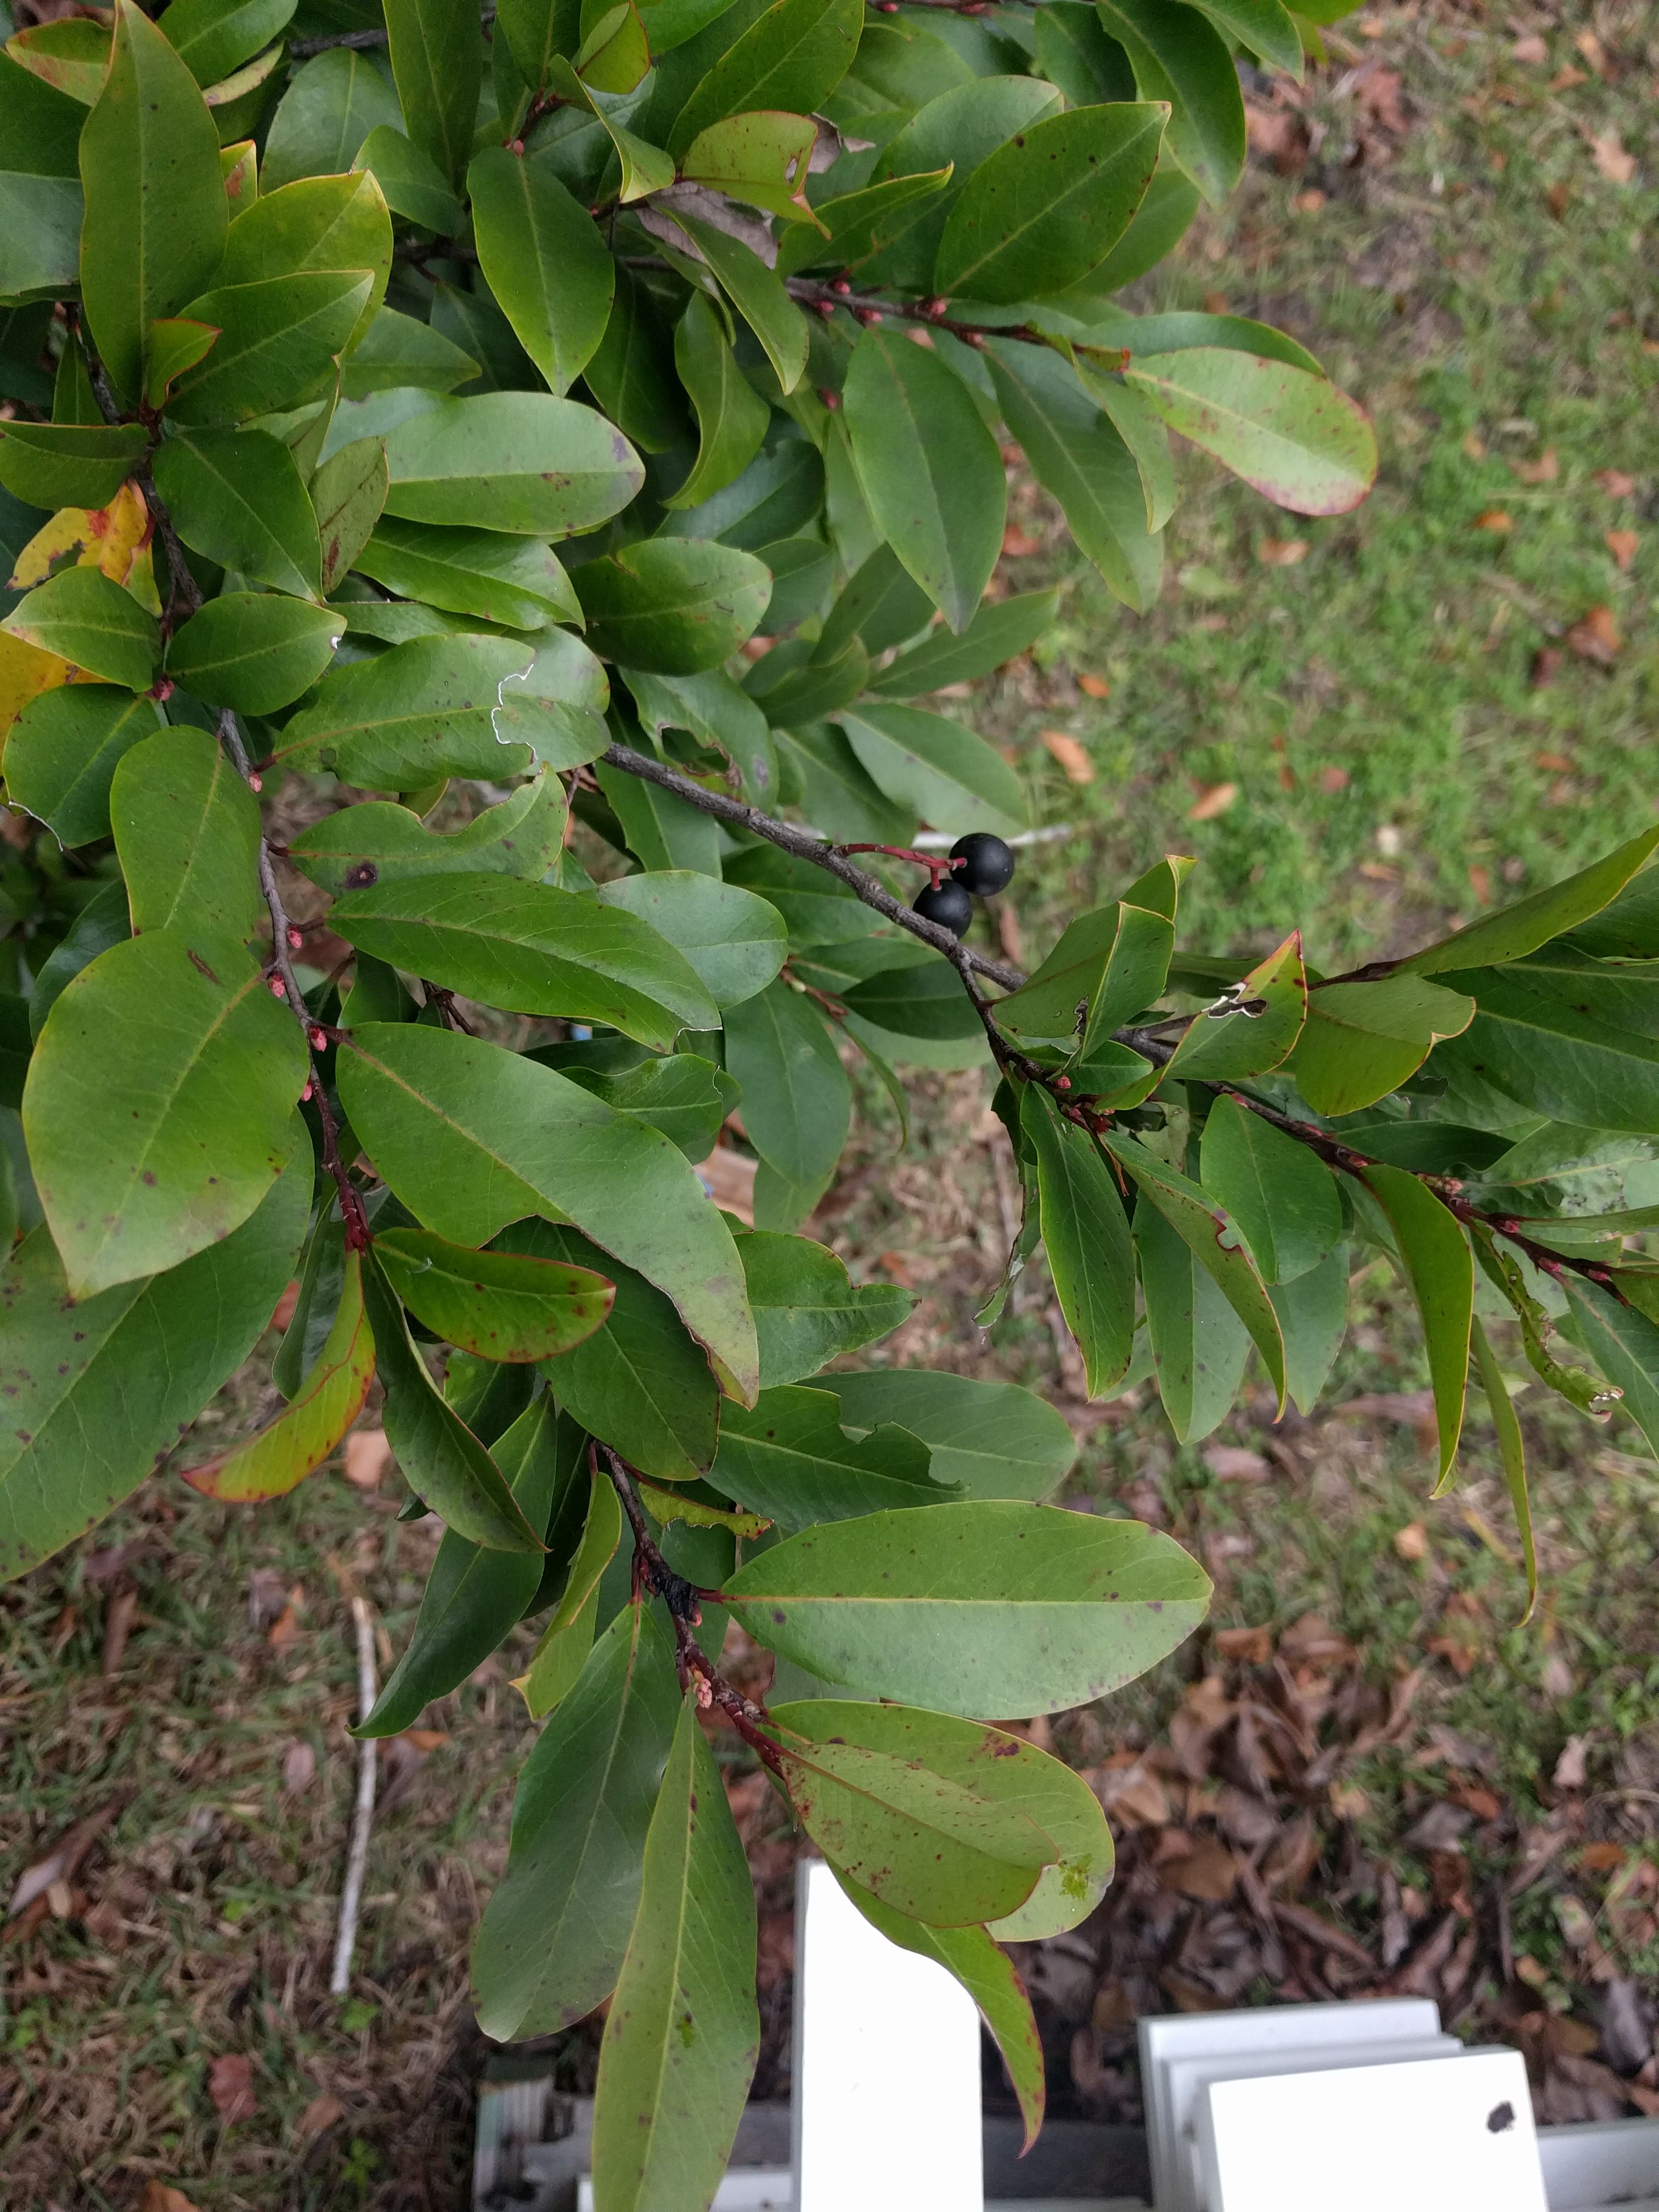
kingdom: Plantae
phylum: Tracheophyta
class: Magnoliopsida
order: Rosales
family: Rosaceae
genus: Prunus
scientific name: Prunus caroliniana
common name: Carolina laurel cherry
